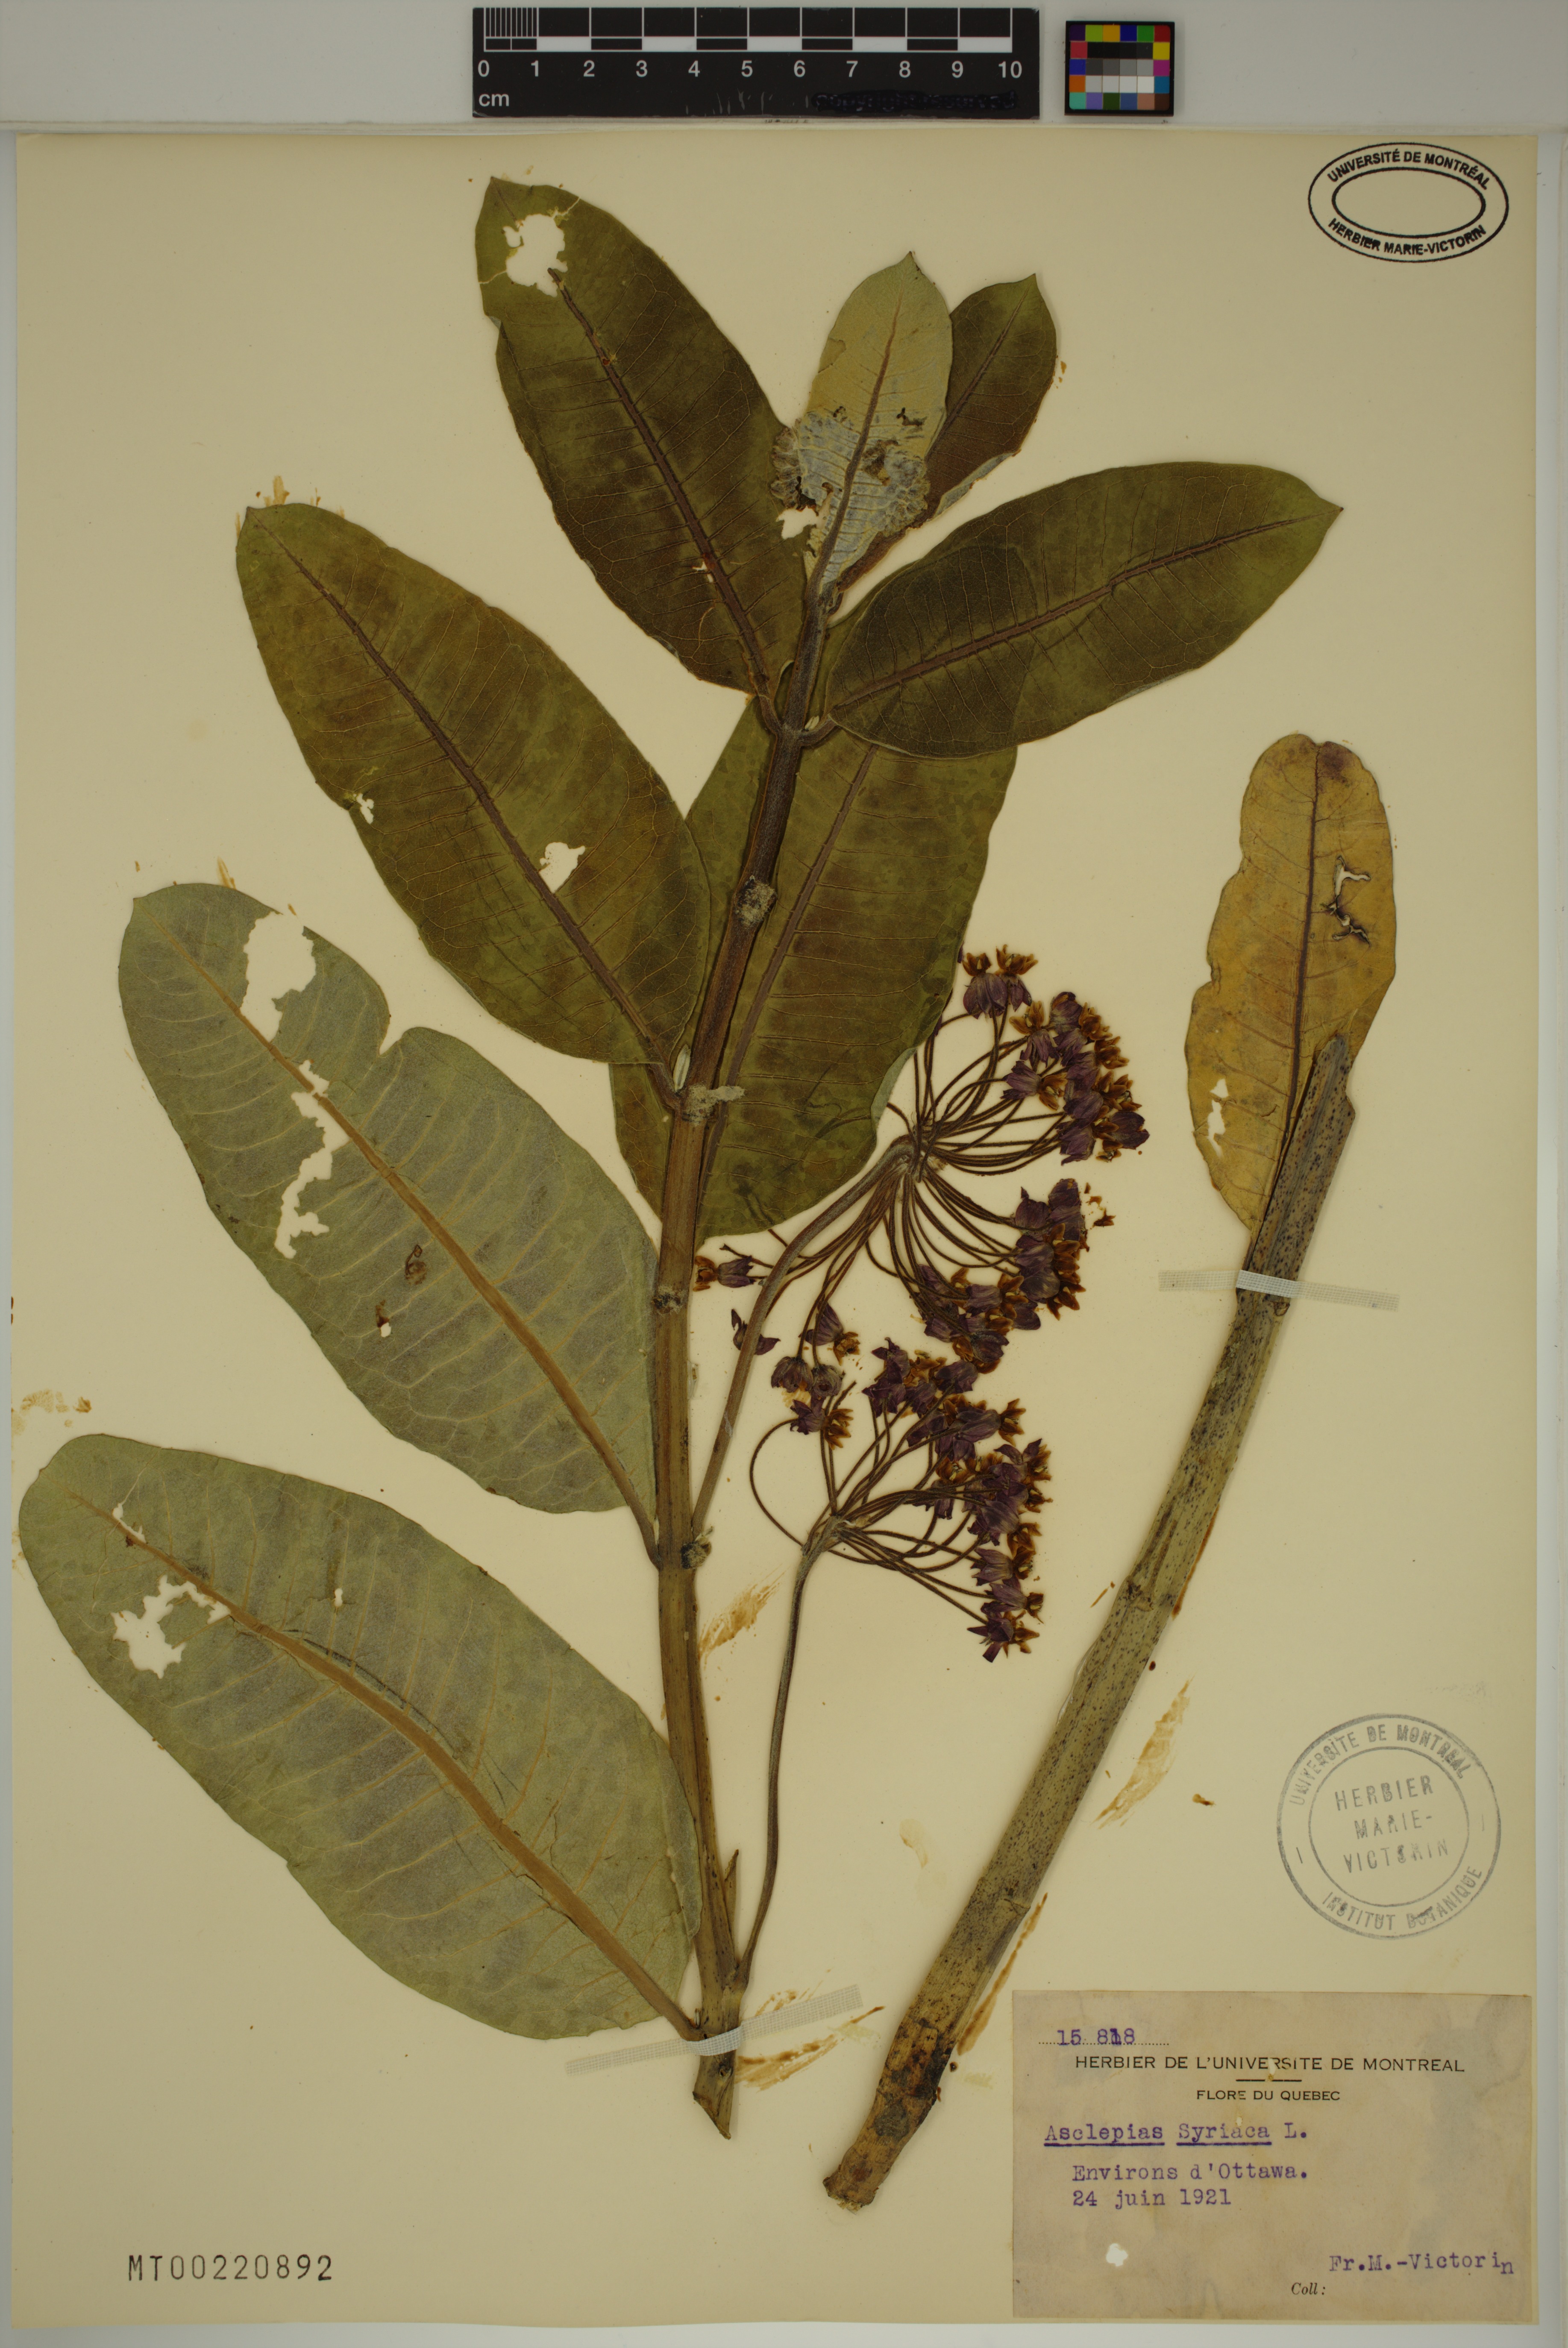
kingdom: Plantae
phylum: Tracheophyta
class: Magnoliopsida
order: Gentianales
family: Apocynaceae
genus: Asclepias
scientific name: Asclepias syriaca
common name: Common milkweed
